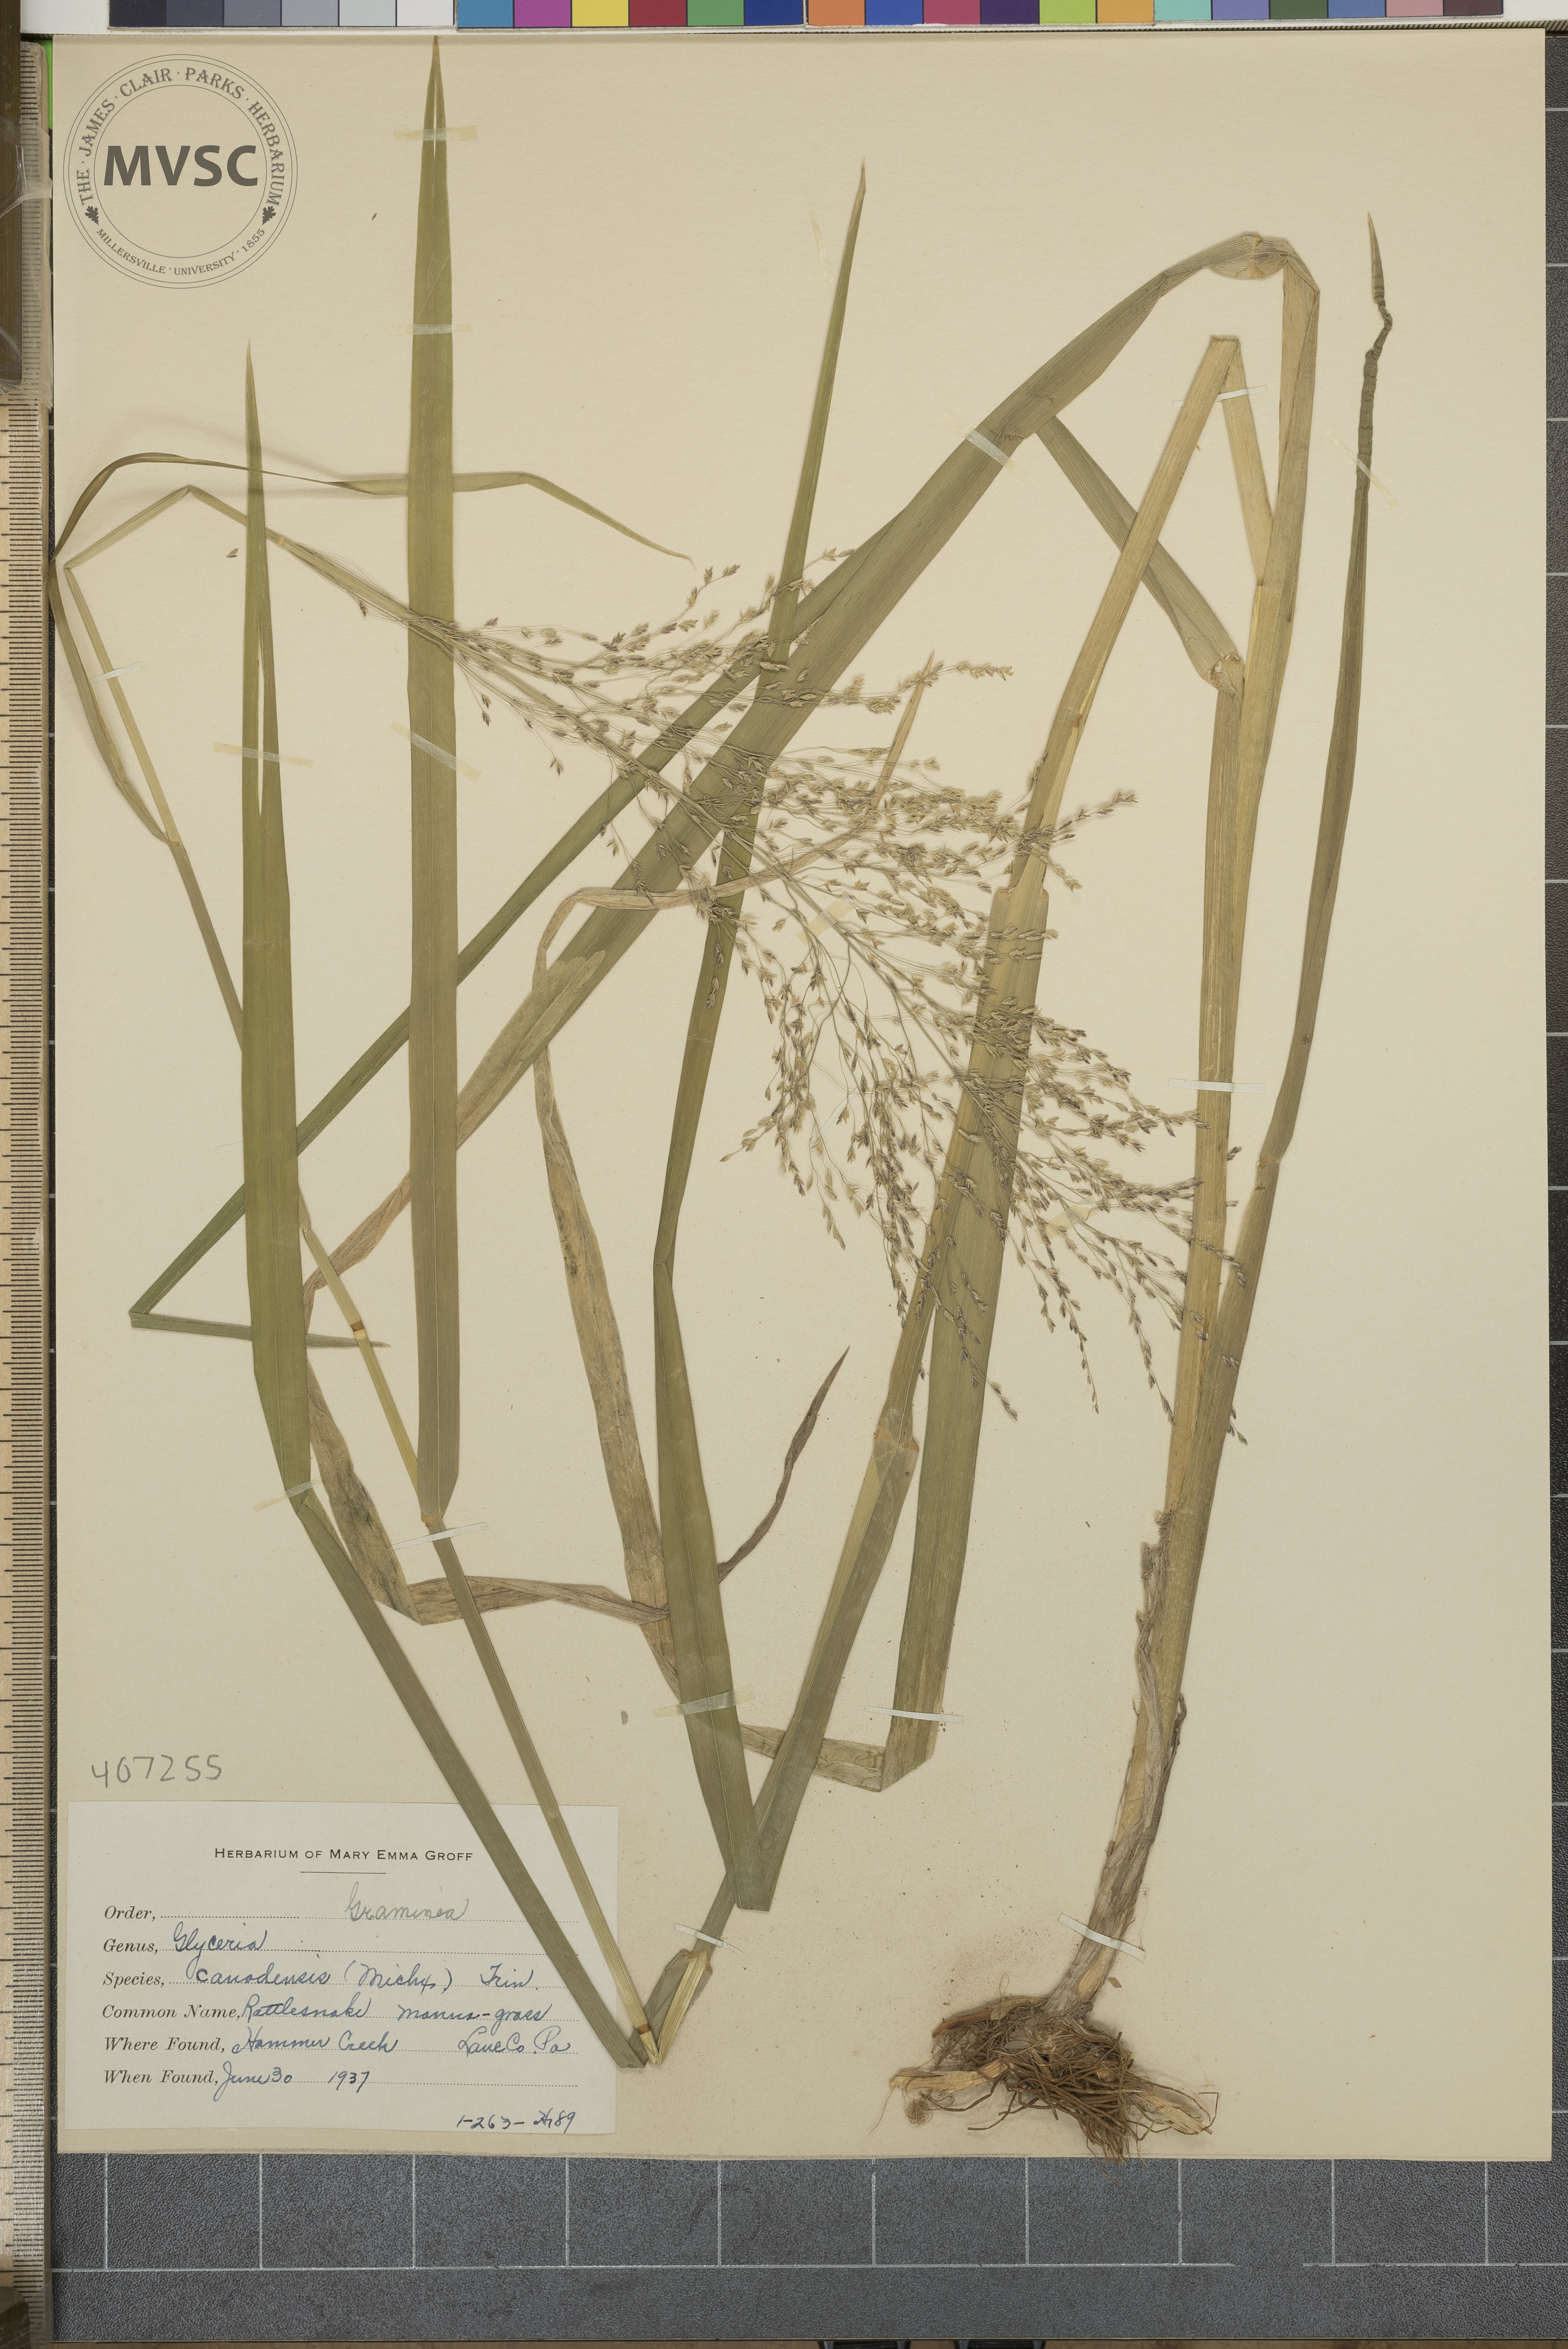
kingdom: Plantae
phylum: Tracheophyta
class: Liliopsida
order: Poales
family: Poaceae
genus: Glyceria
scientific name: Glyceria canadensis
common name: Canada mannagrass
